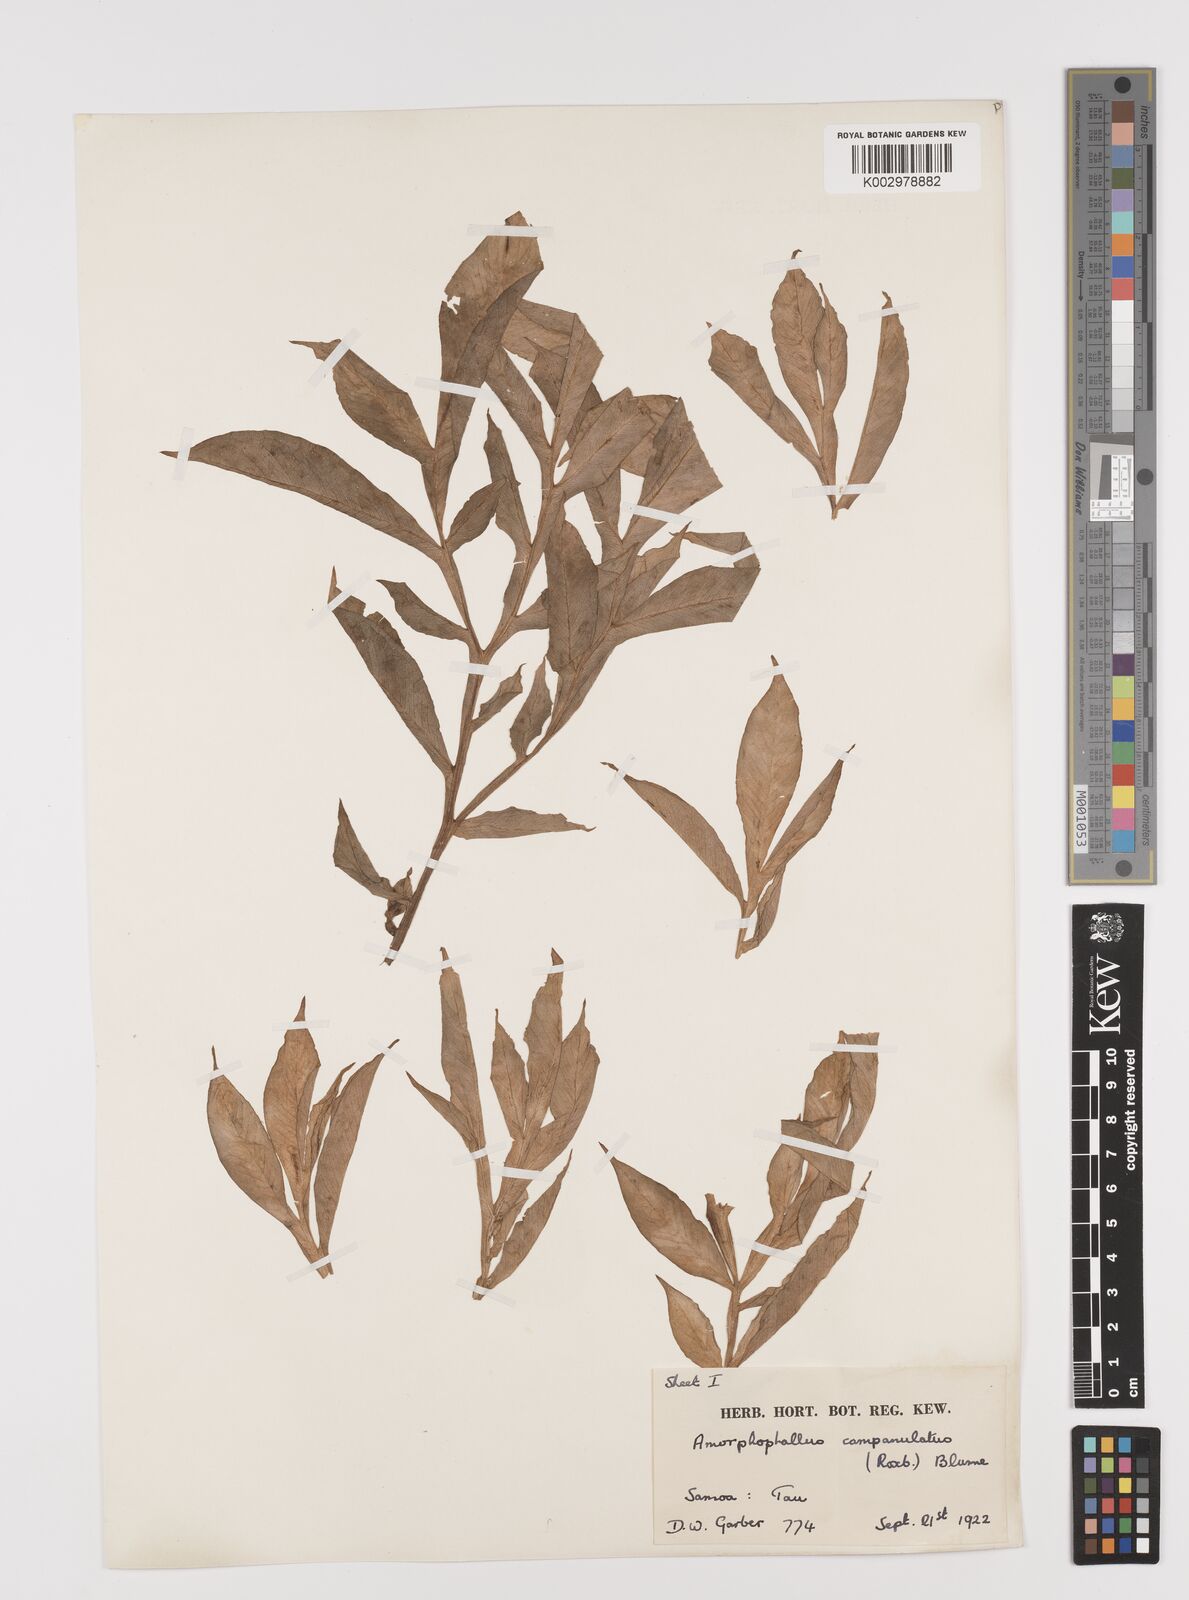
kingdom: Plantae
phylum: Tracheophyta
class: Liliopsida
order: Alismatales
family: Araceae
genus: Amorphophallus
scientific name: Amorphophallus paeoniifolius
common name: Telinga-potato
